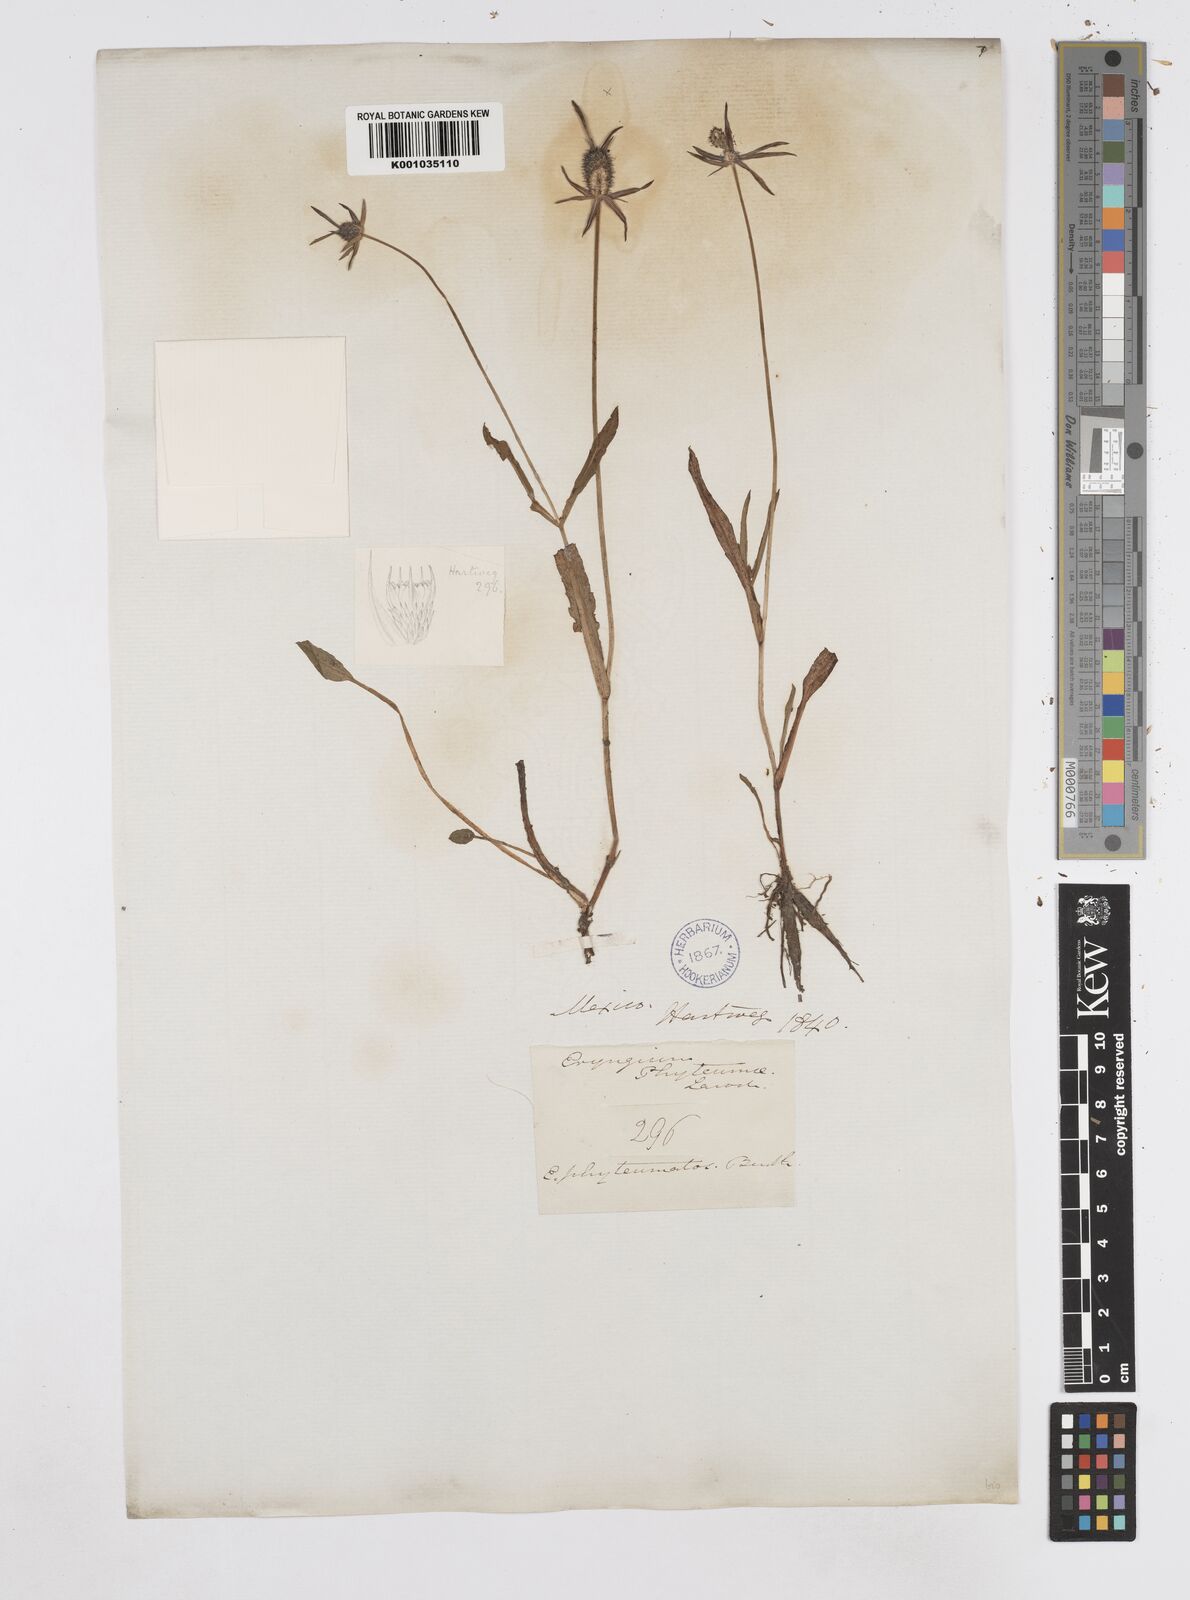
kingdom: Plantae
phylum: Tracheophyta
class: Magnoliopsida
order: Apiales
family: Apiaceae
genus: Eryngium
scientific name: Eryngium phyteumae
